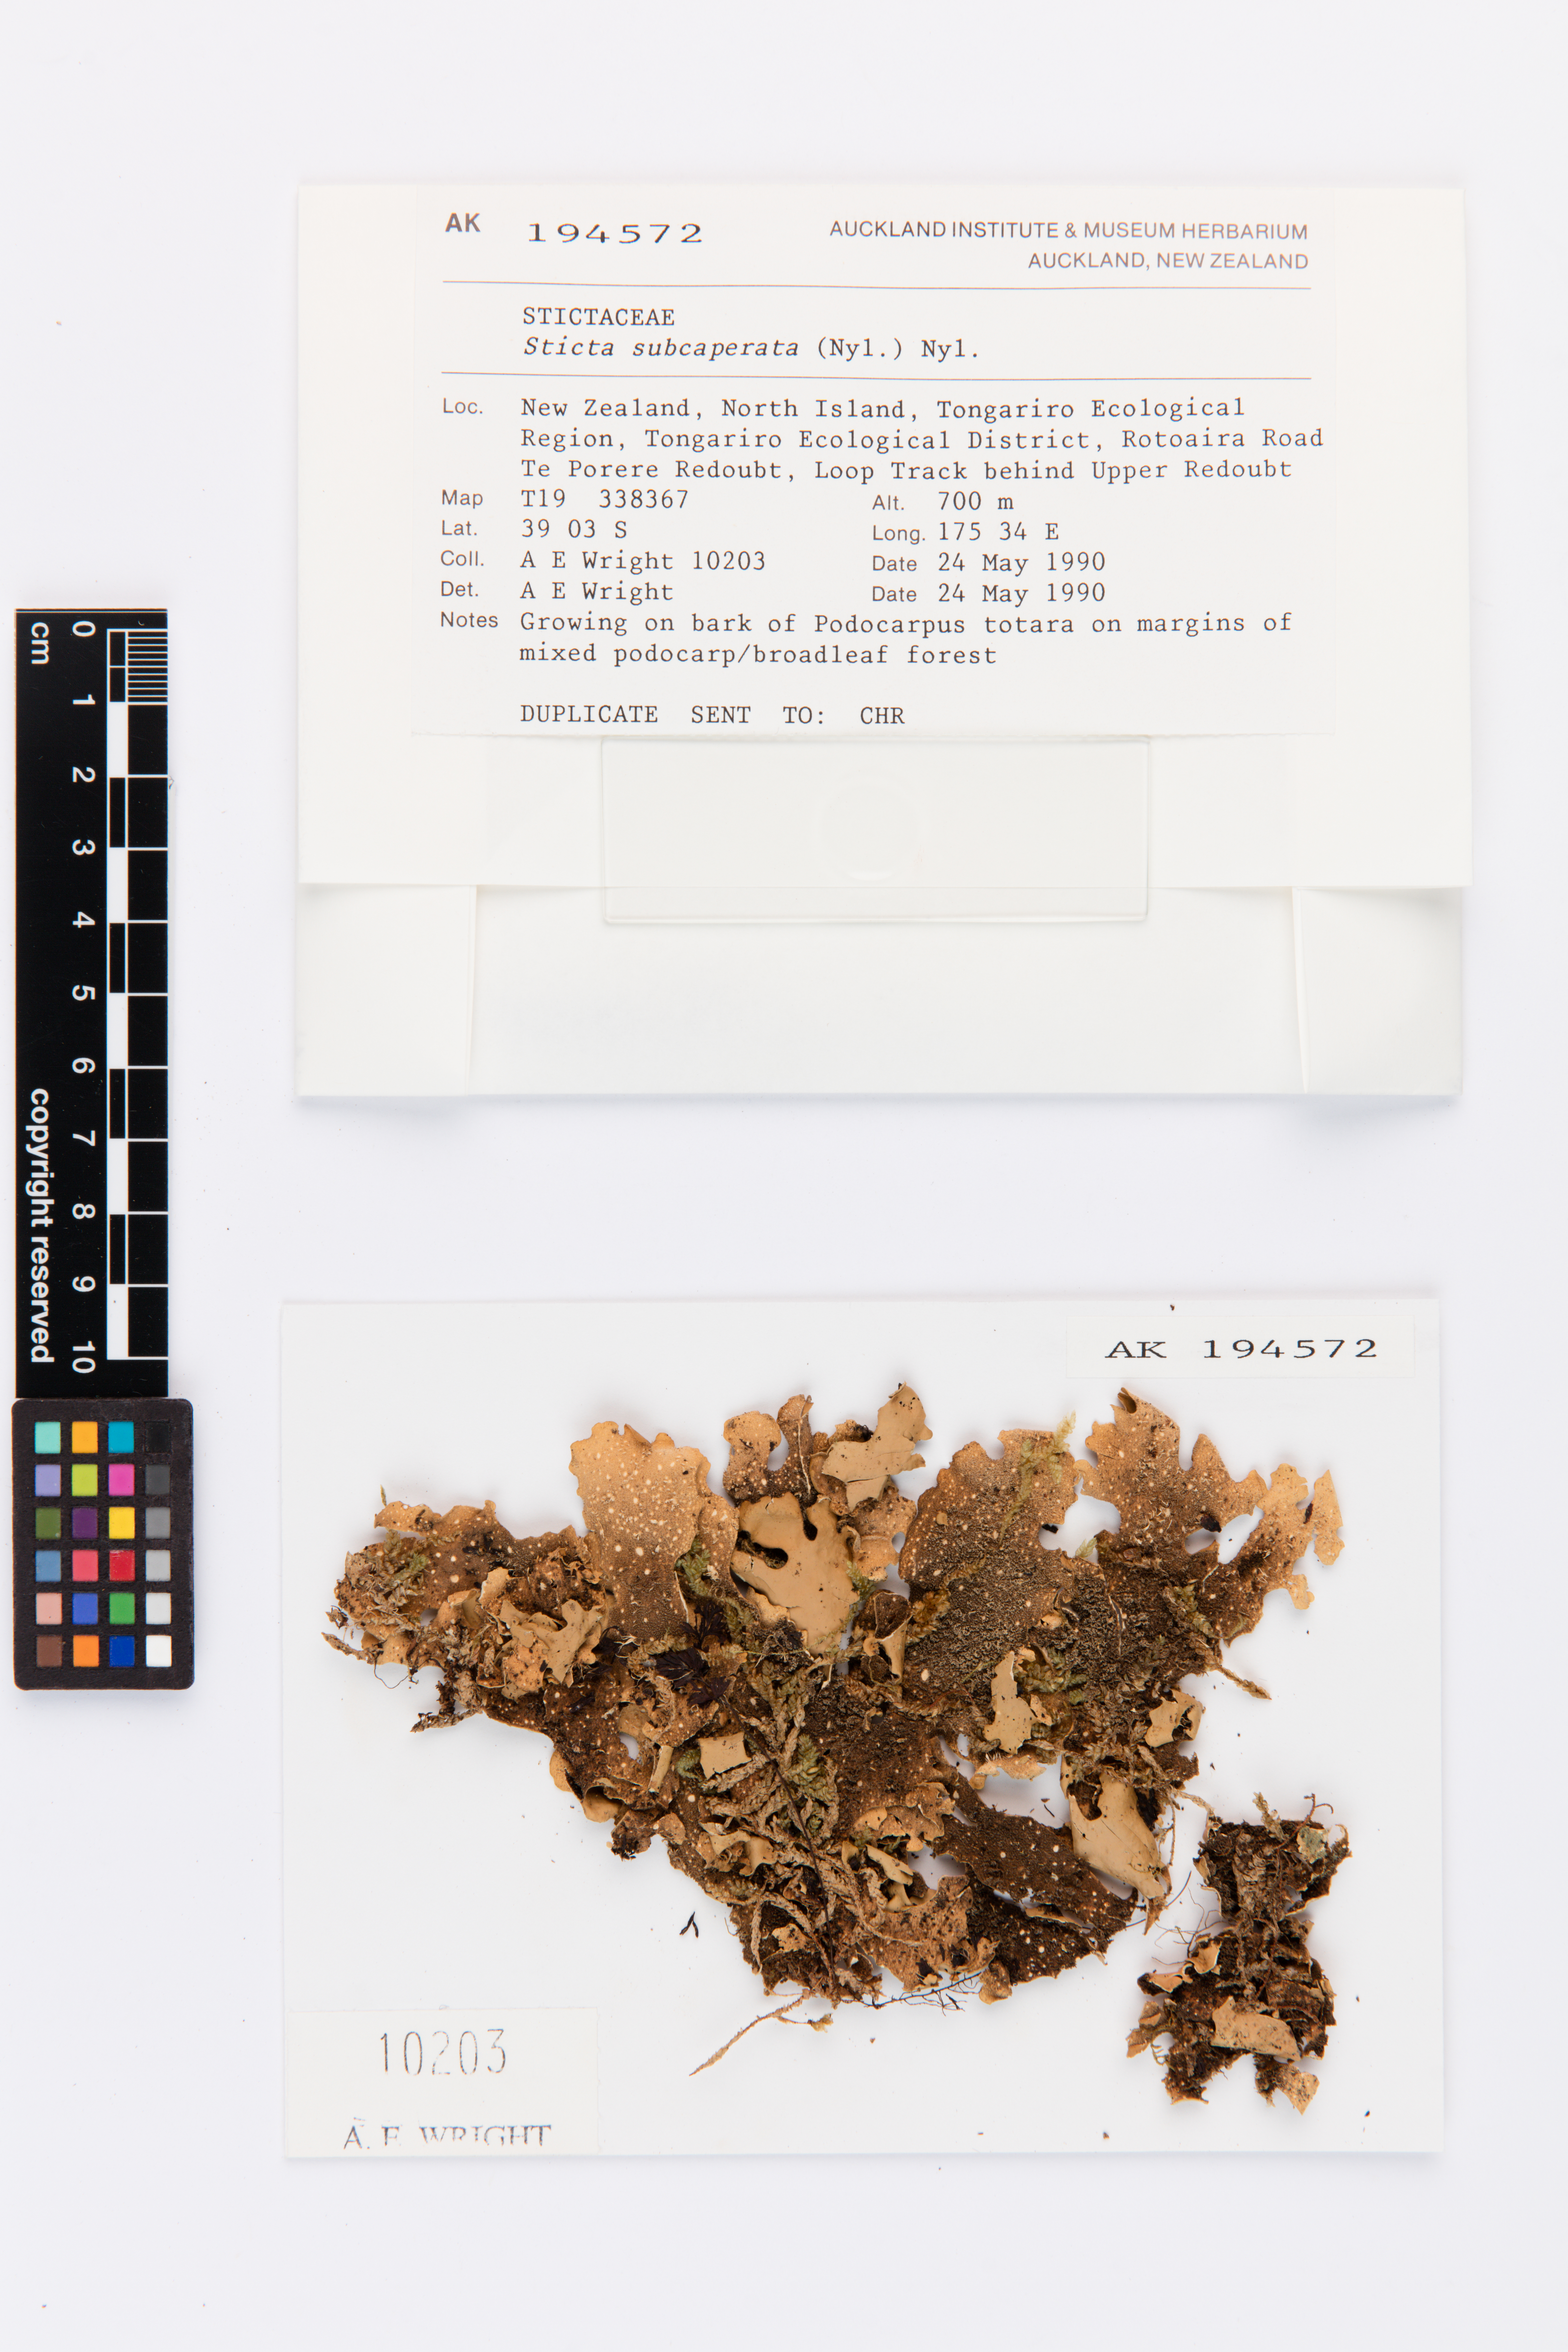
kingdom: Fungi
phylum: Ascomycota
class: Lecanoromycetes
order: Peltigerales
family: Lobariaceae
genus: Sticta
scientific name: Sticta subcaperata
